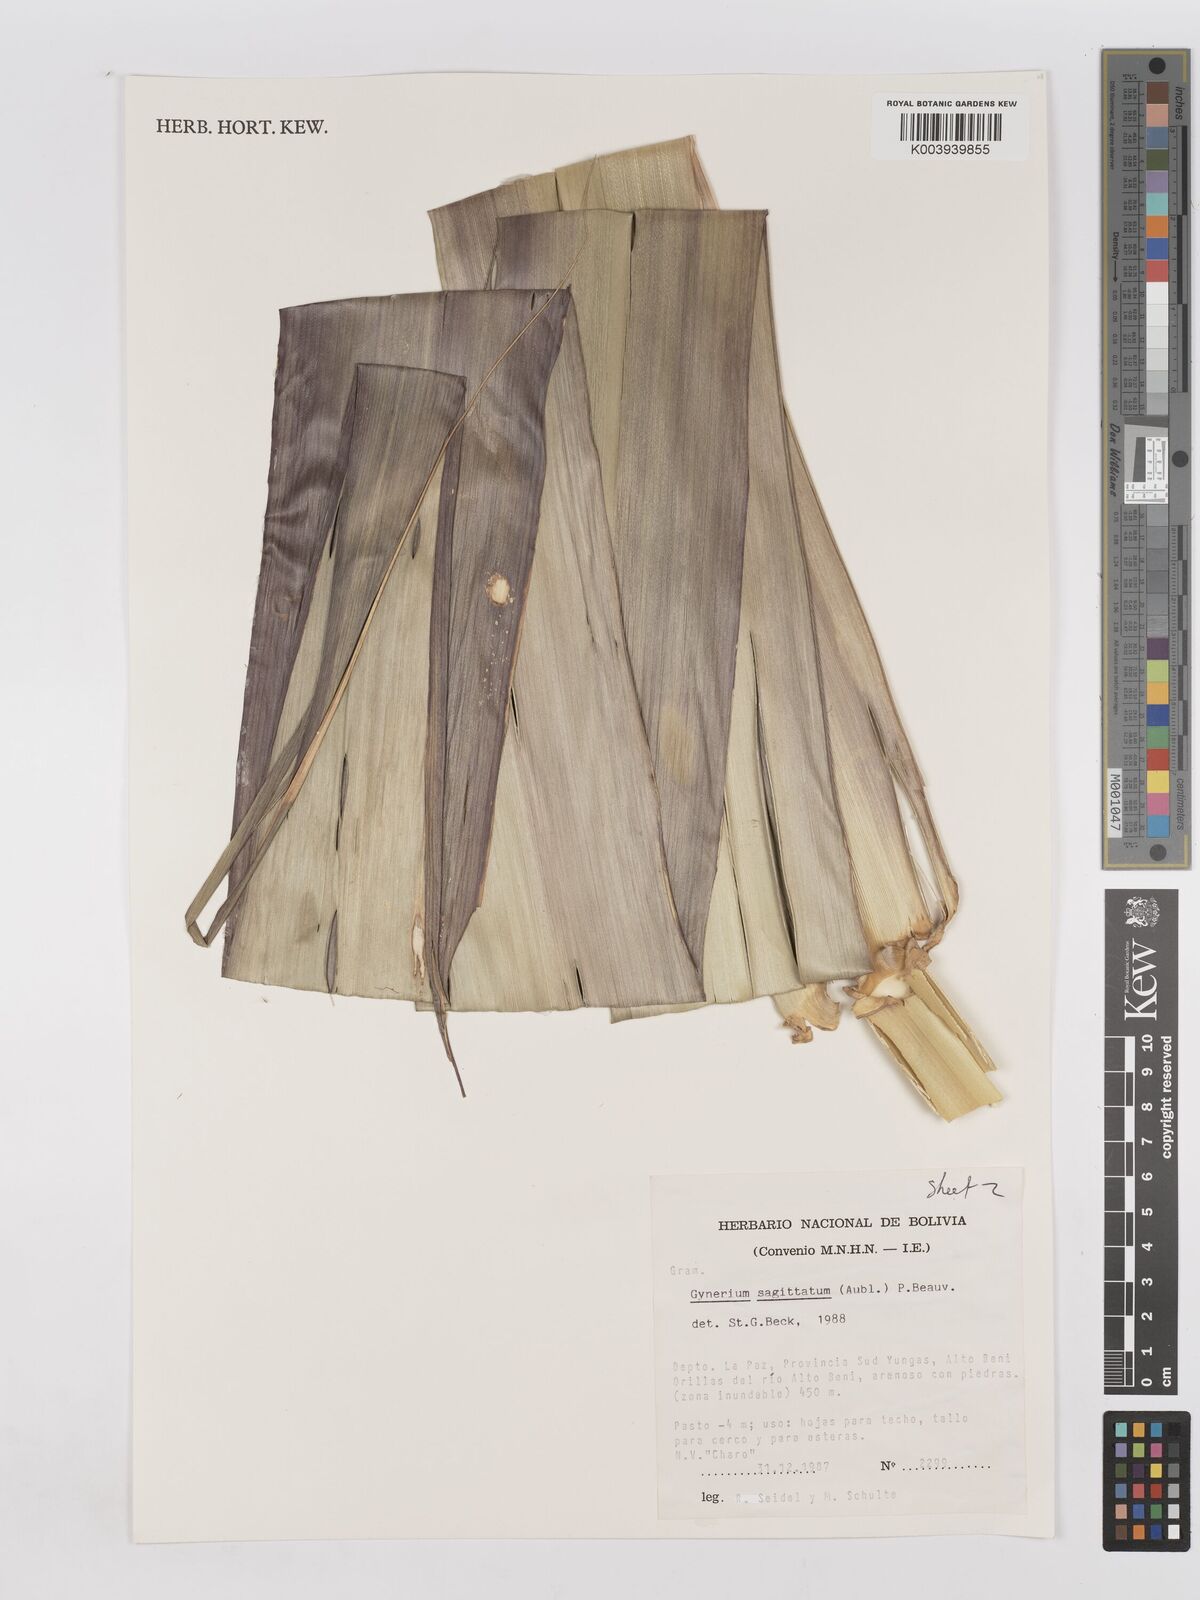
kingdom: Plantae
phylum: Tracheophyta
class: Liliopsida
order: Poales
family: Poaceae
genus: Gynerium
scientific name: Gynerium sagittatum
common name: Wild cane
